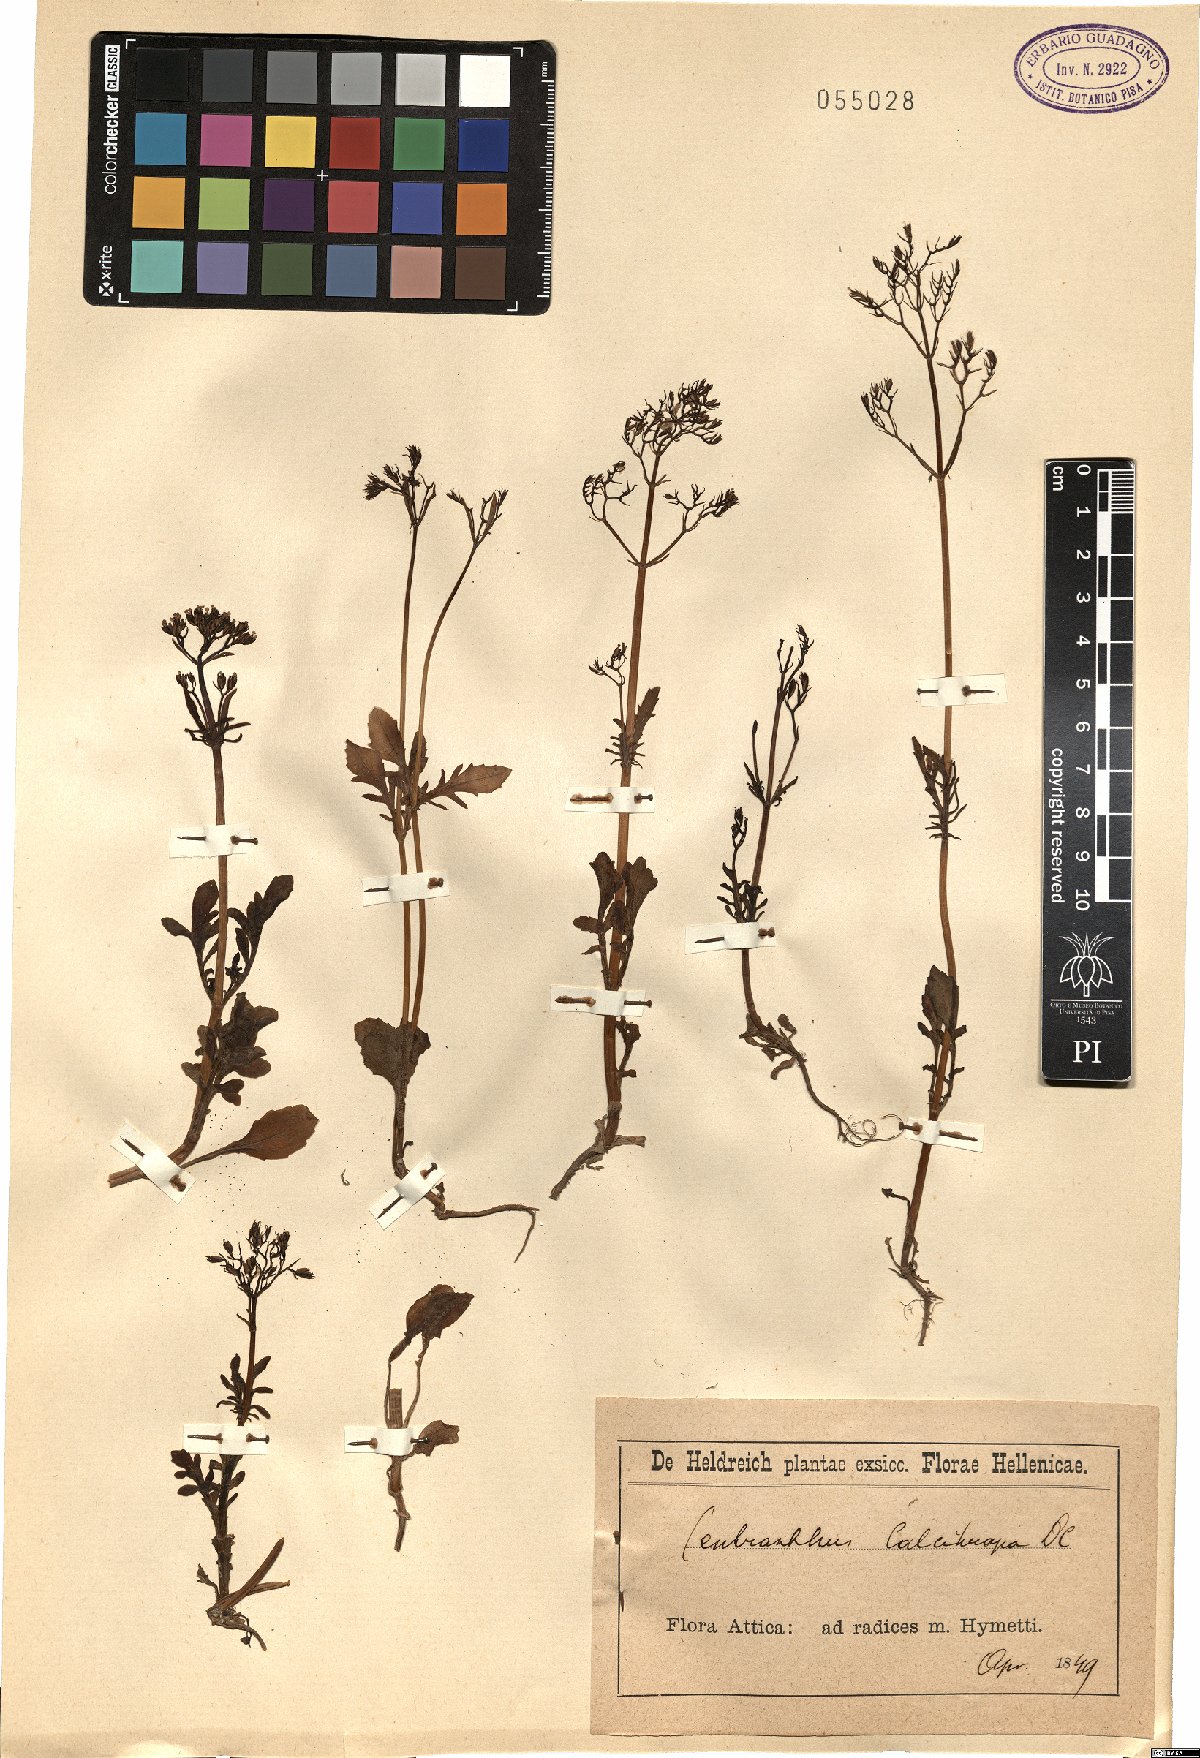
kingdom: Plantae
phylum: Tracheophyta
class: Magnoliopsida
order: Dipsacales
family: Caprifoliaceae
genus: Centranthus
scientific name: Centranthus calcitrapae
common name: Annual valerian
